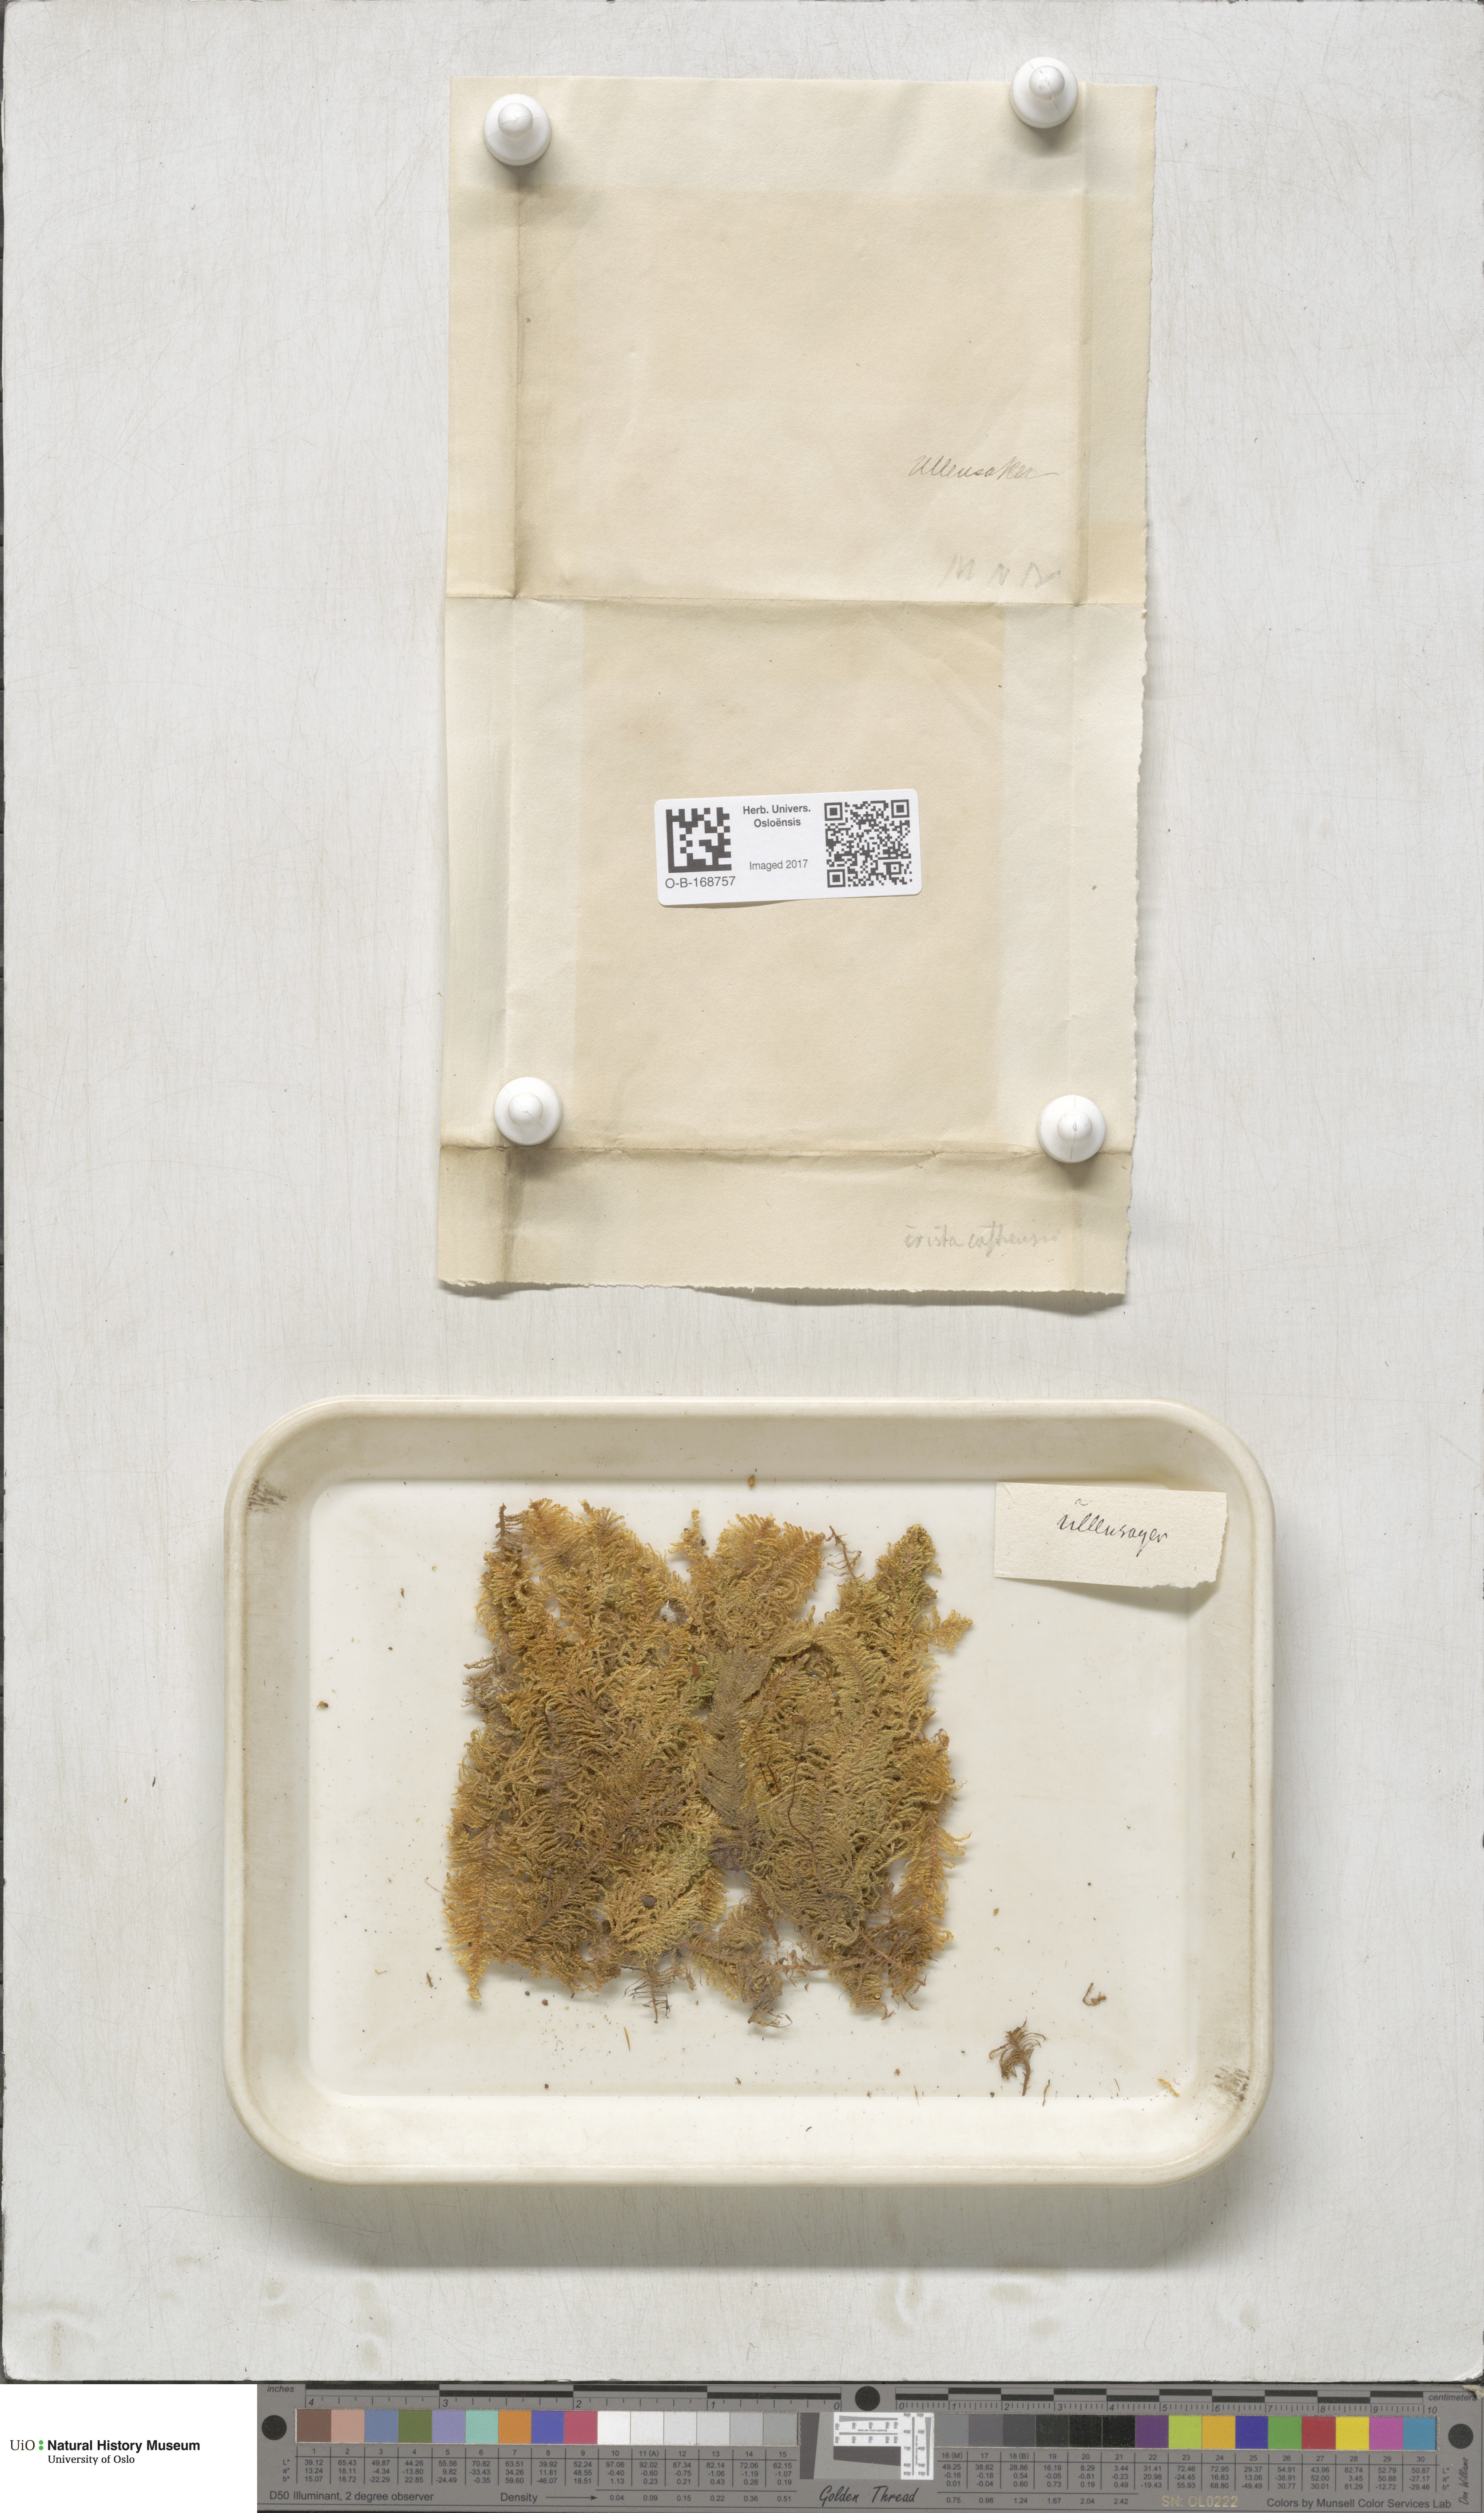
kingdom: Plantae
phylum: Bryophyta
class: Bryopsida
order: Hypnales
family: Pylaisiaceae
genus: Ptilium
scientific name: Ptilium crista-castrensis
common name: Knight's plume moss
